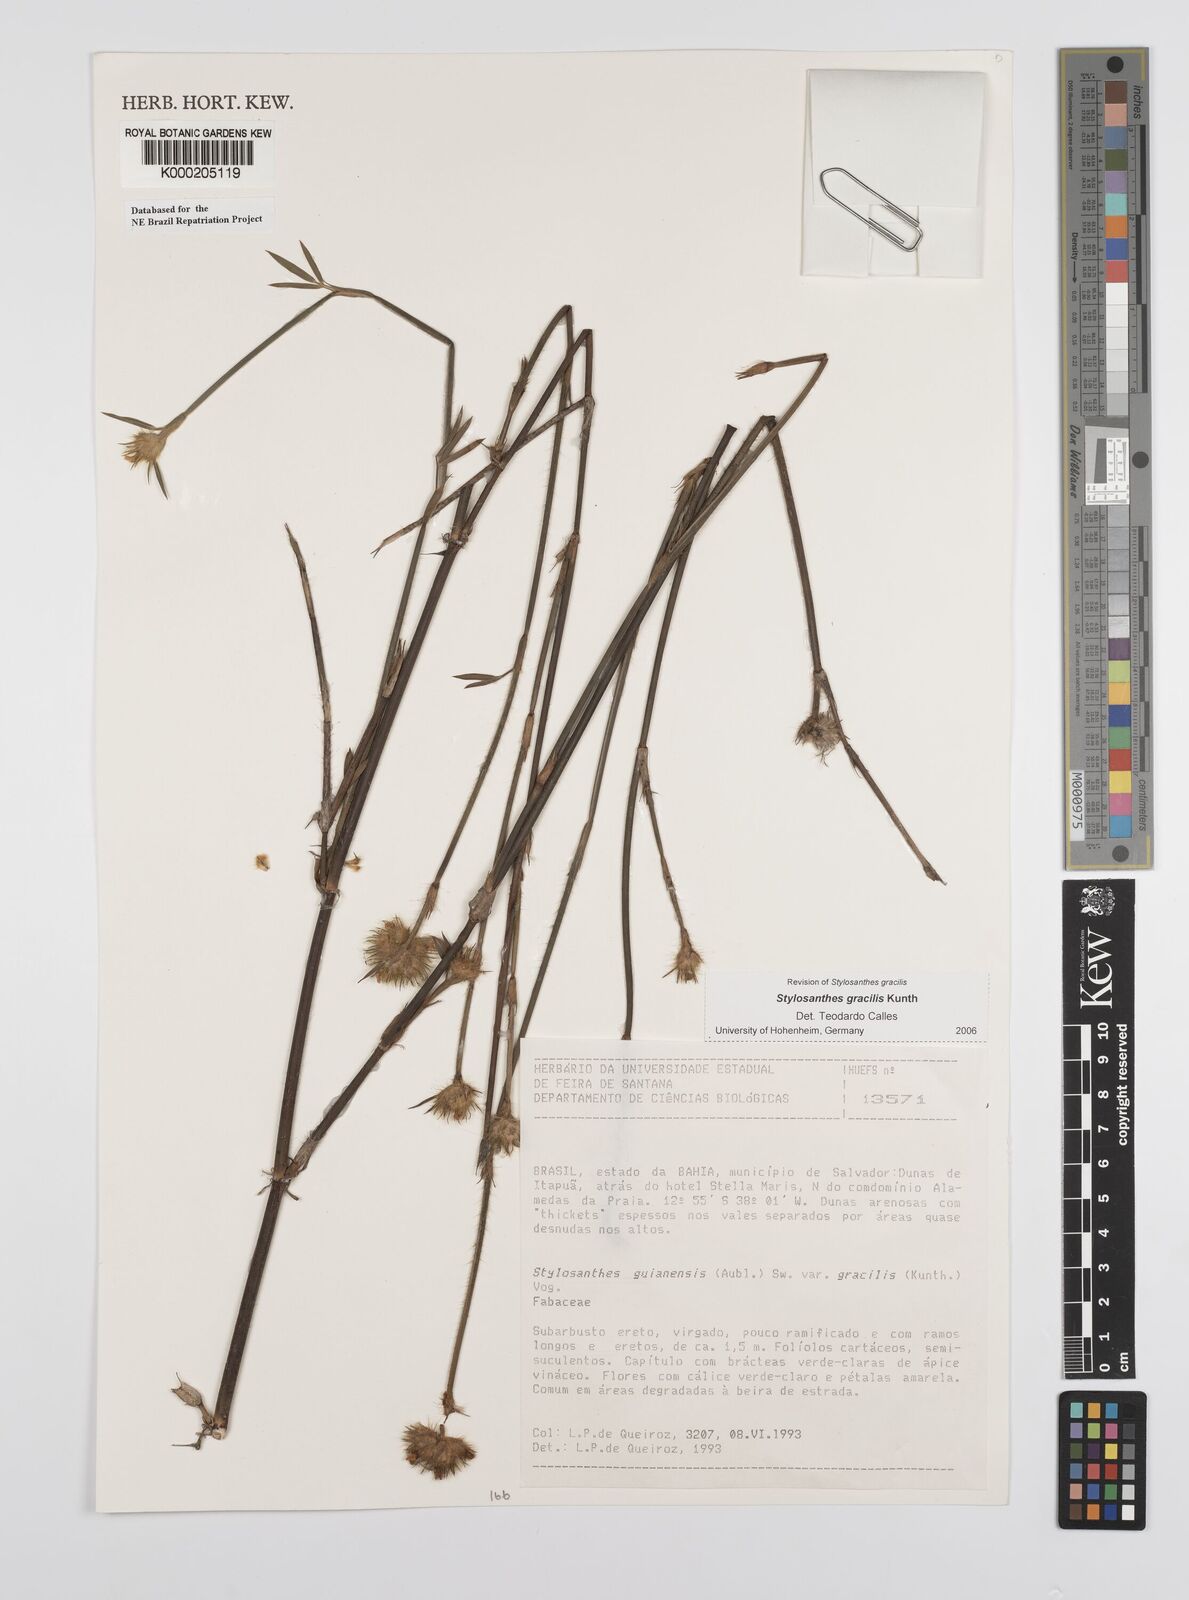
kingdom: Plantae
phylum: Tracheophyta
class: Magnoliopsida
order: Fabales
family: Fabaceae
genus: Stylosanthes
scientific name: Stylosanthes guianensis
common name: Pencil flower
